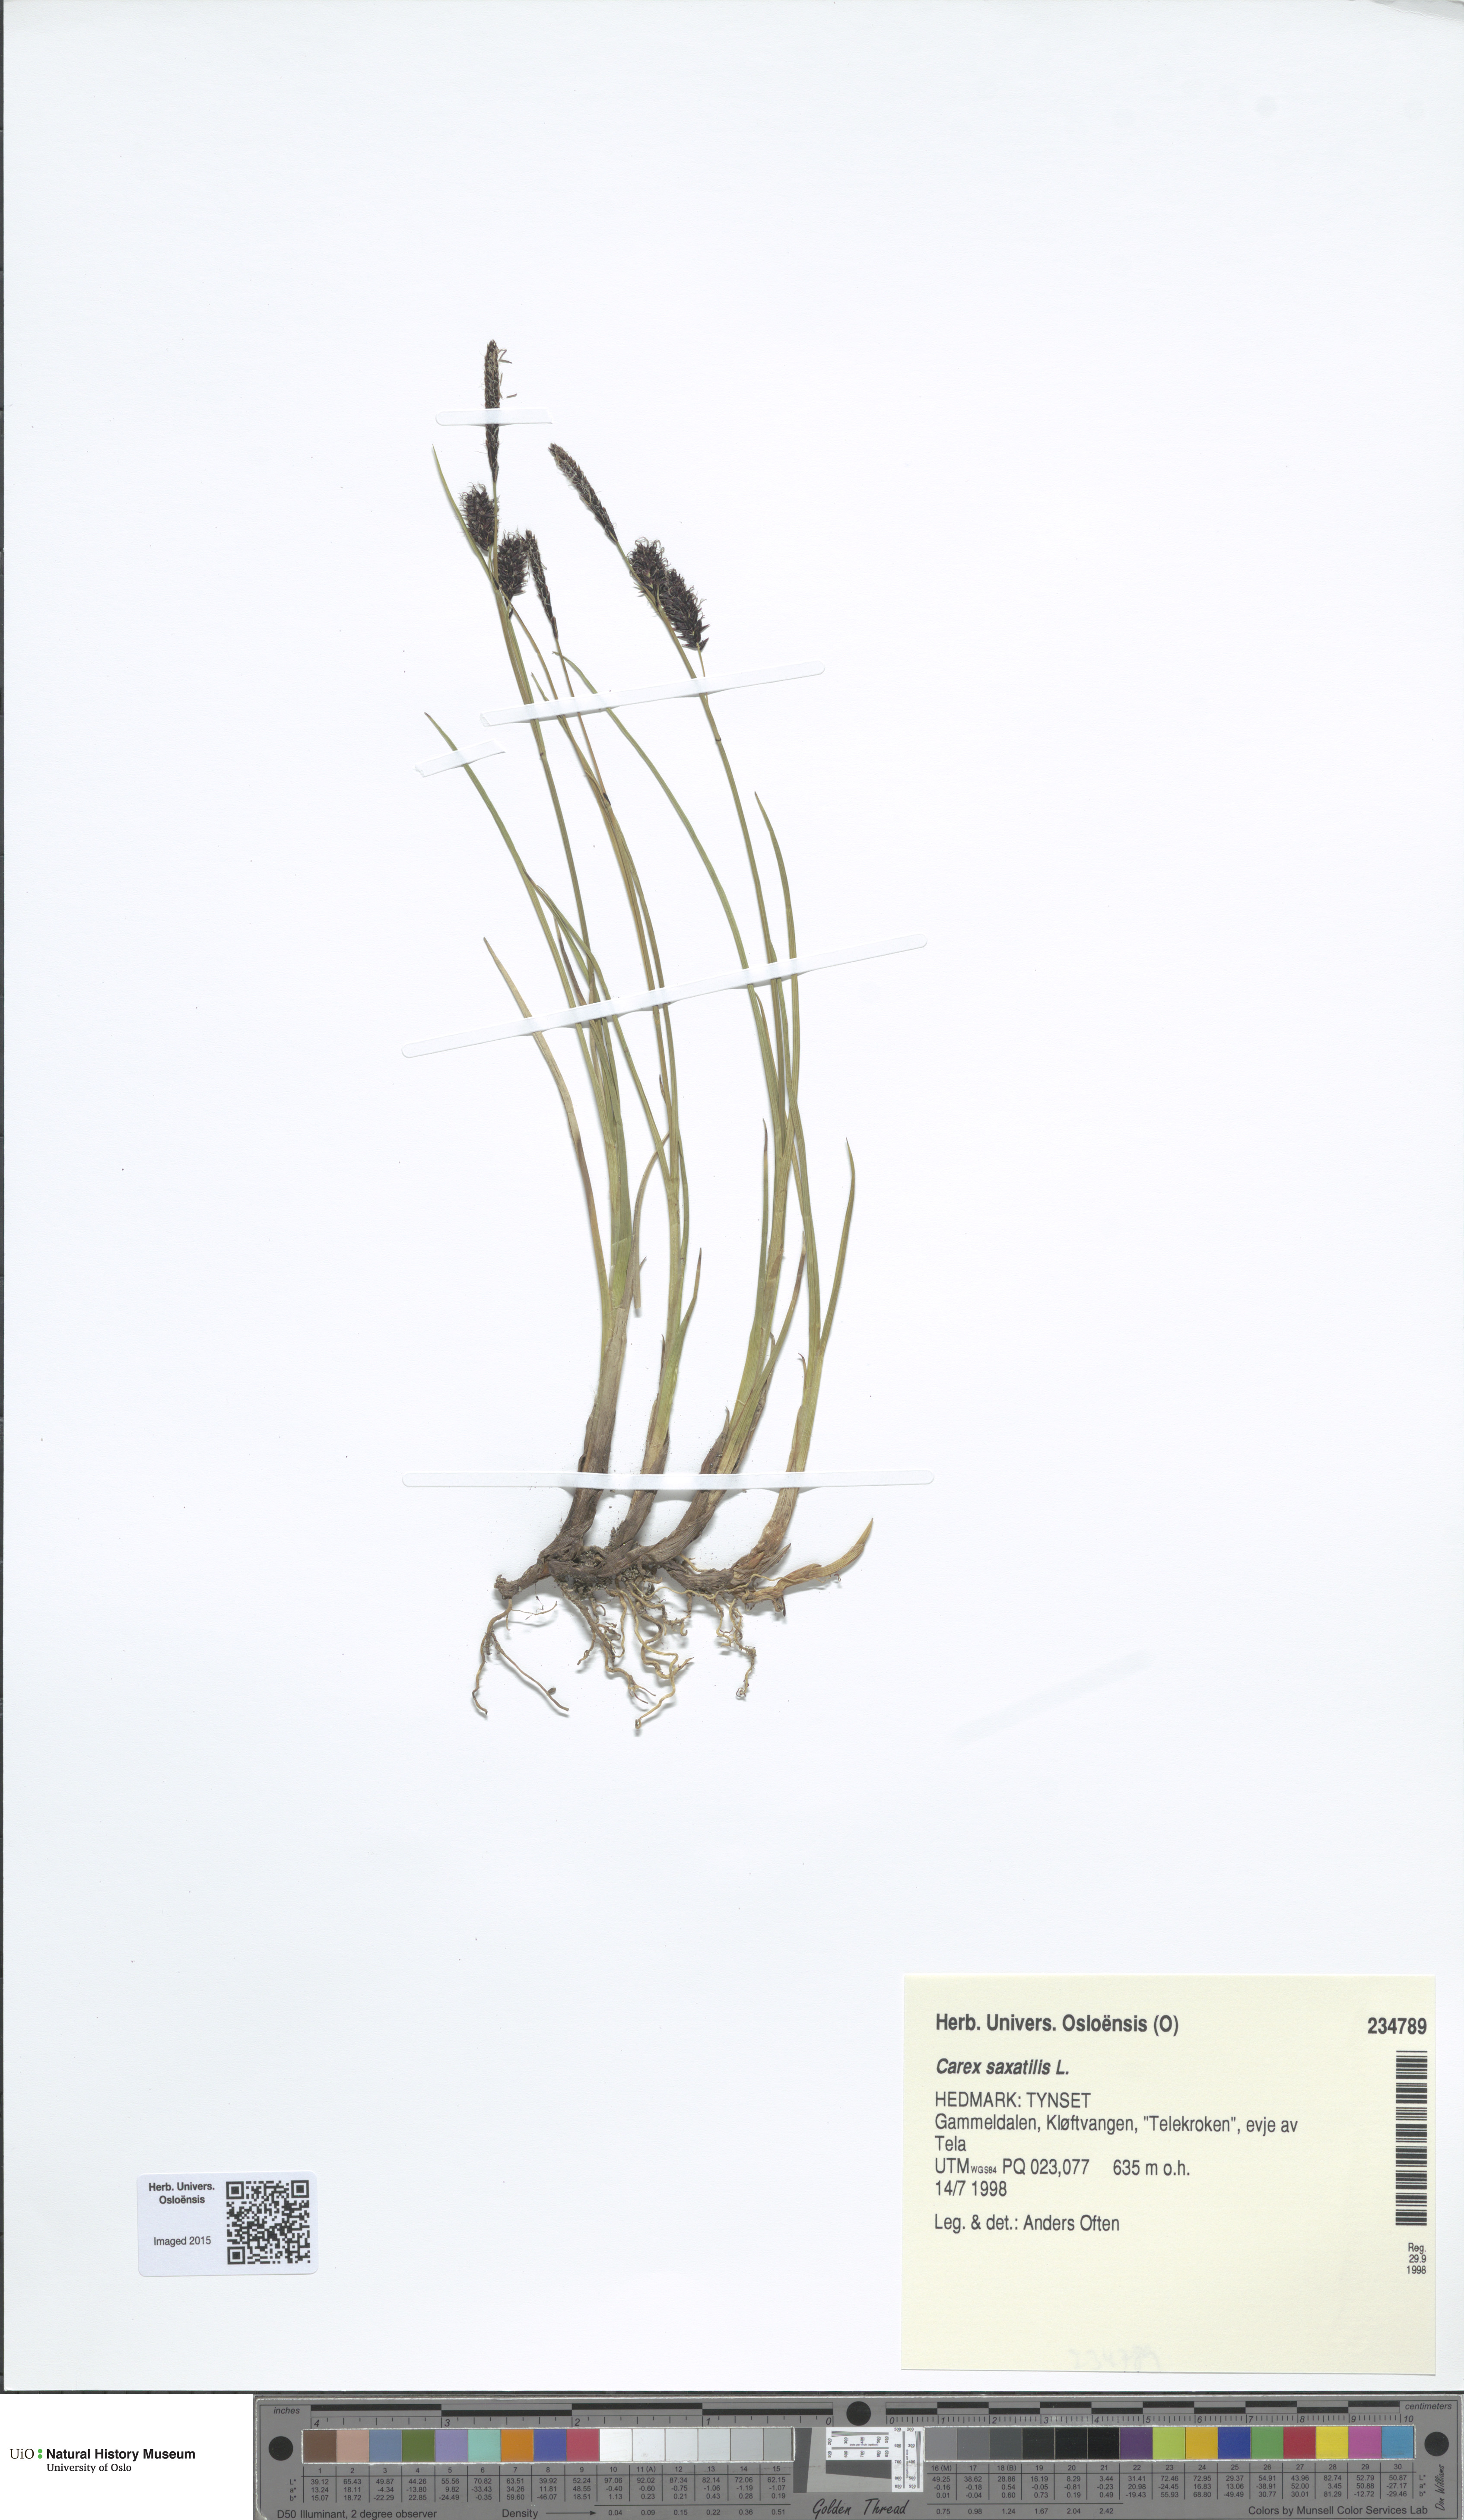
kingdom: Plantae
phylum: Tracheophyta
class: Liliopsida
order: Poales
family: Cyperaceae
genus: Carex
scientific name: Carex saxatilis
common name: Russet sedge
